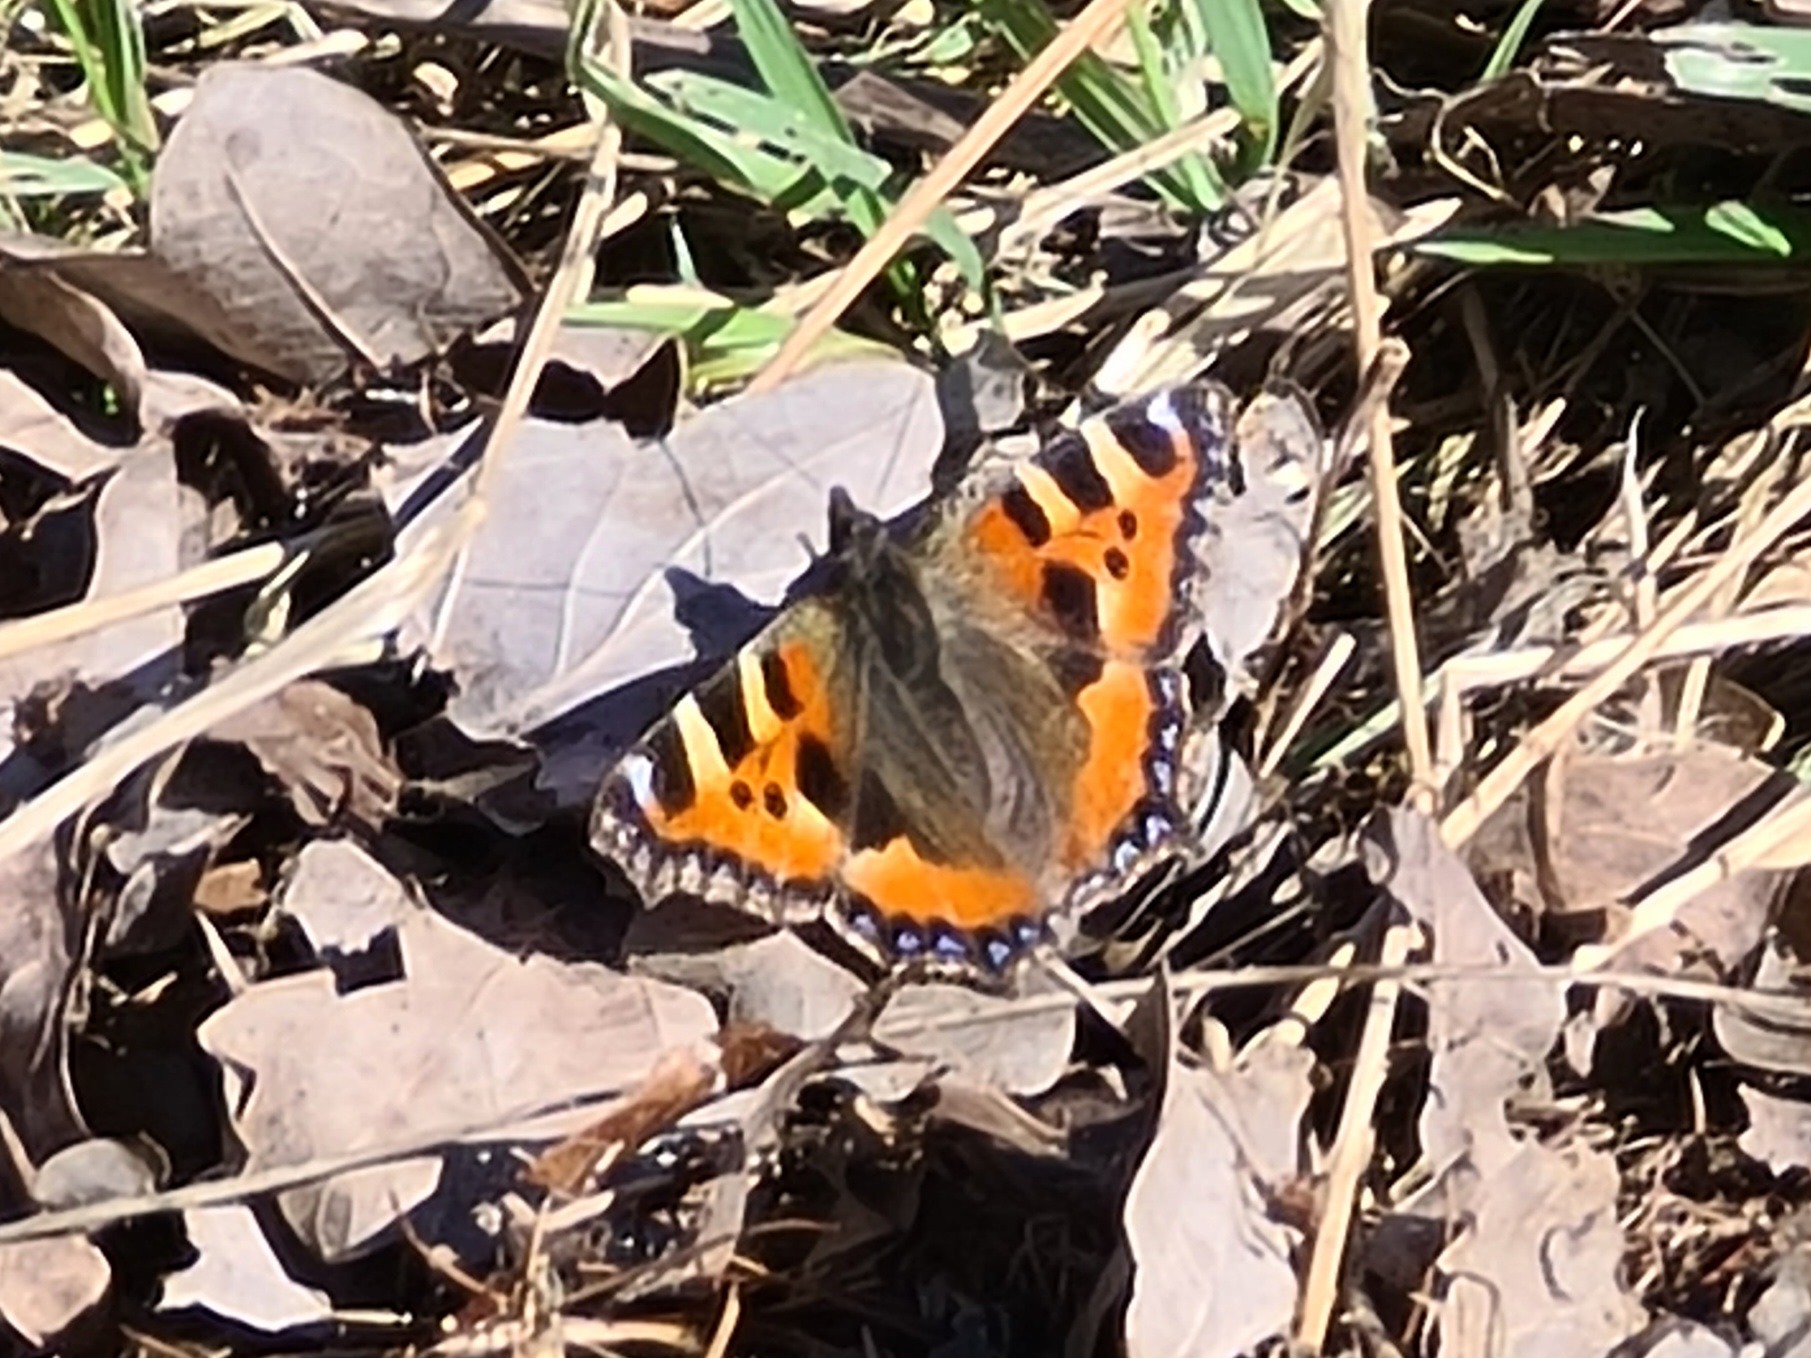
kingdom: Animalia
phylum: Arthropoda
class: Insecta
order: Lepidoptera
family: Nymphalidae
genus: Aglais
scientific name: Aglais urticae
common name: Nældens takvinge
